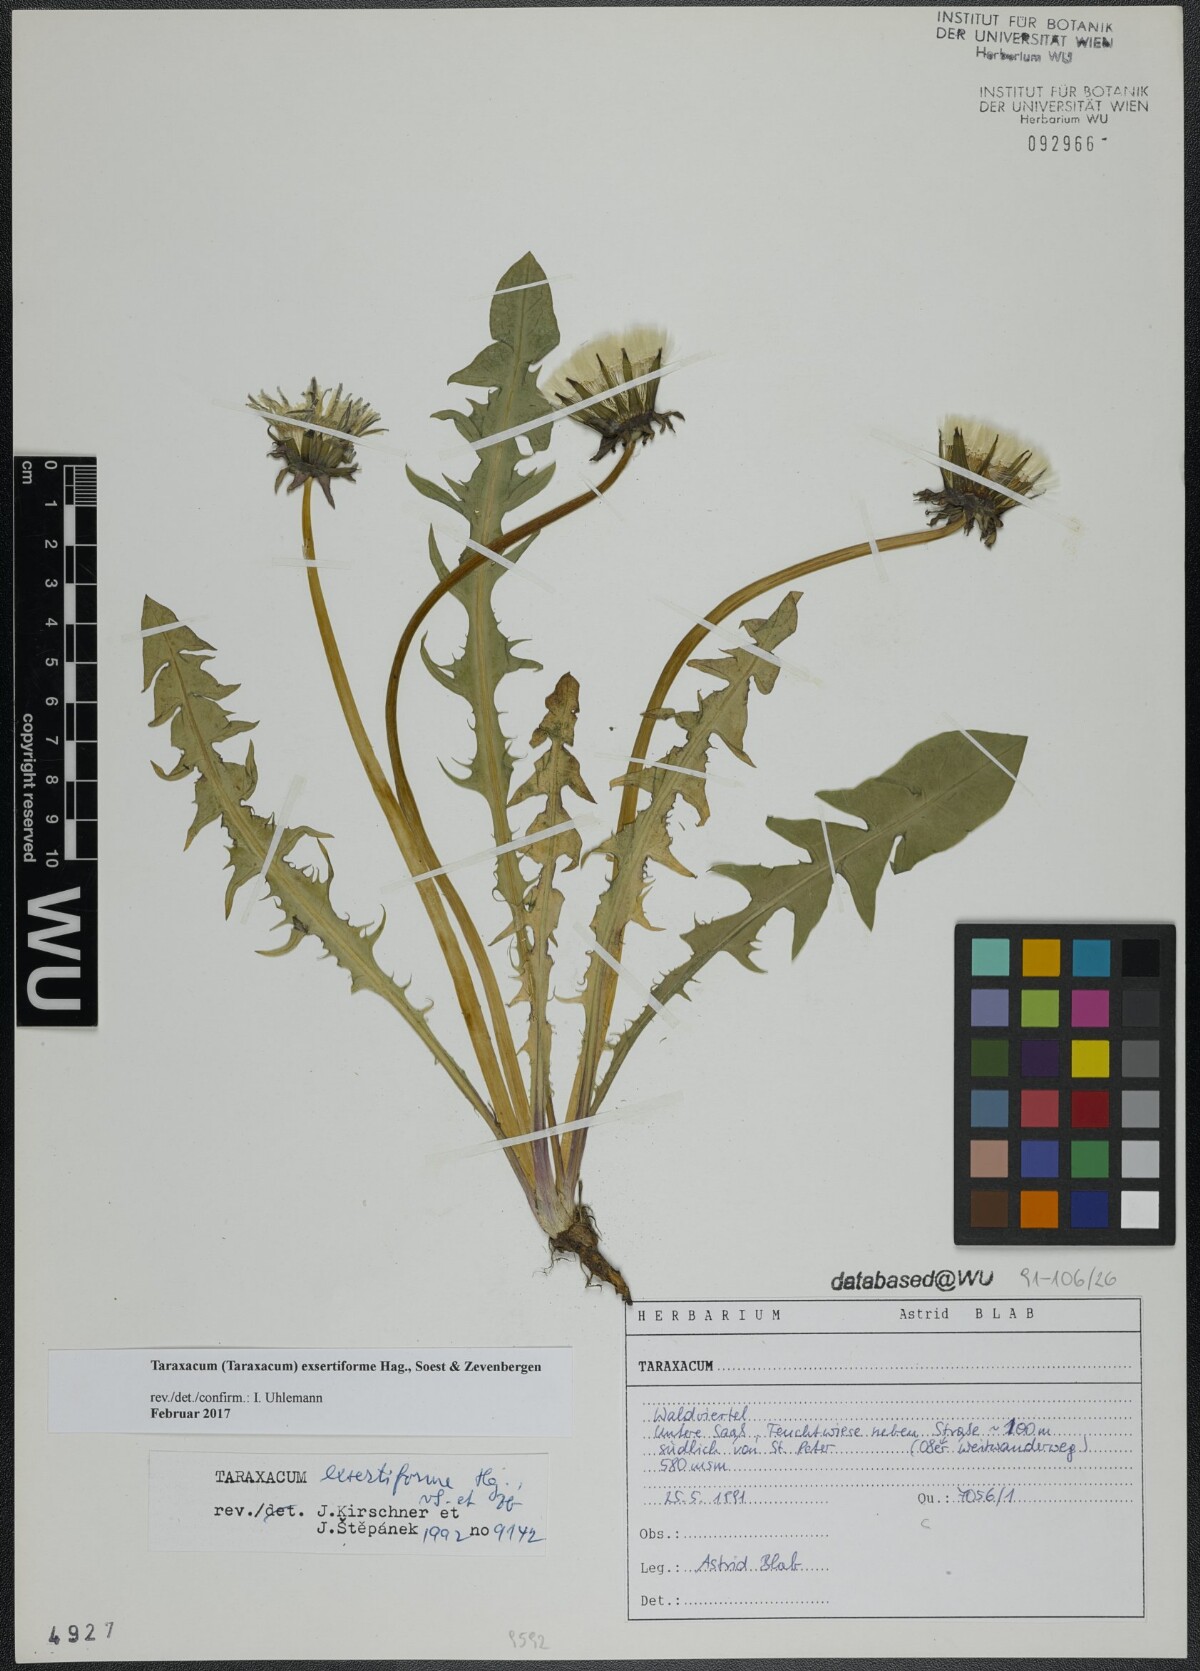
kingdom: Plantae
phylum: Tracheophyta
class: Magnoliopsida
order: Asterales
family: Asteraceae
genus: Taraxacum
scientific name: Taraxacum exsertiforme
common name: Erect-bracted dandelion
